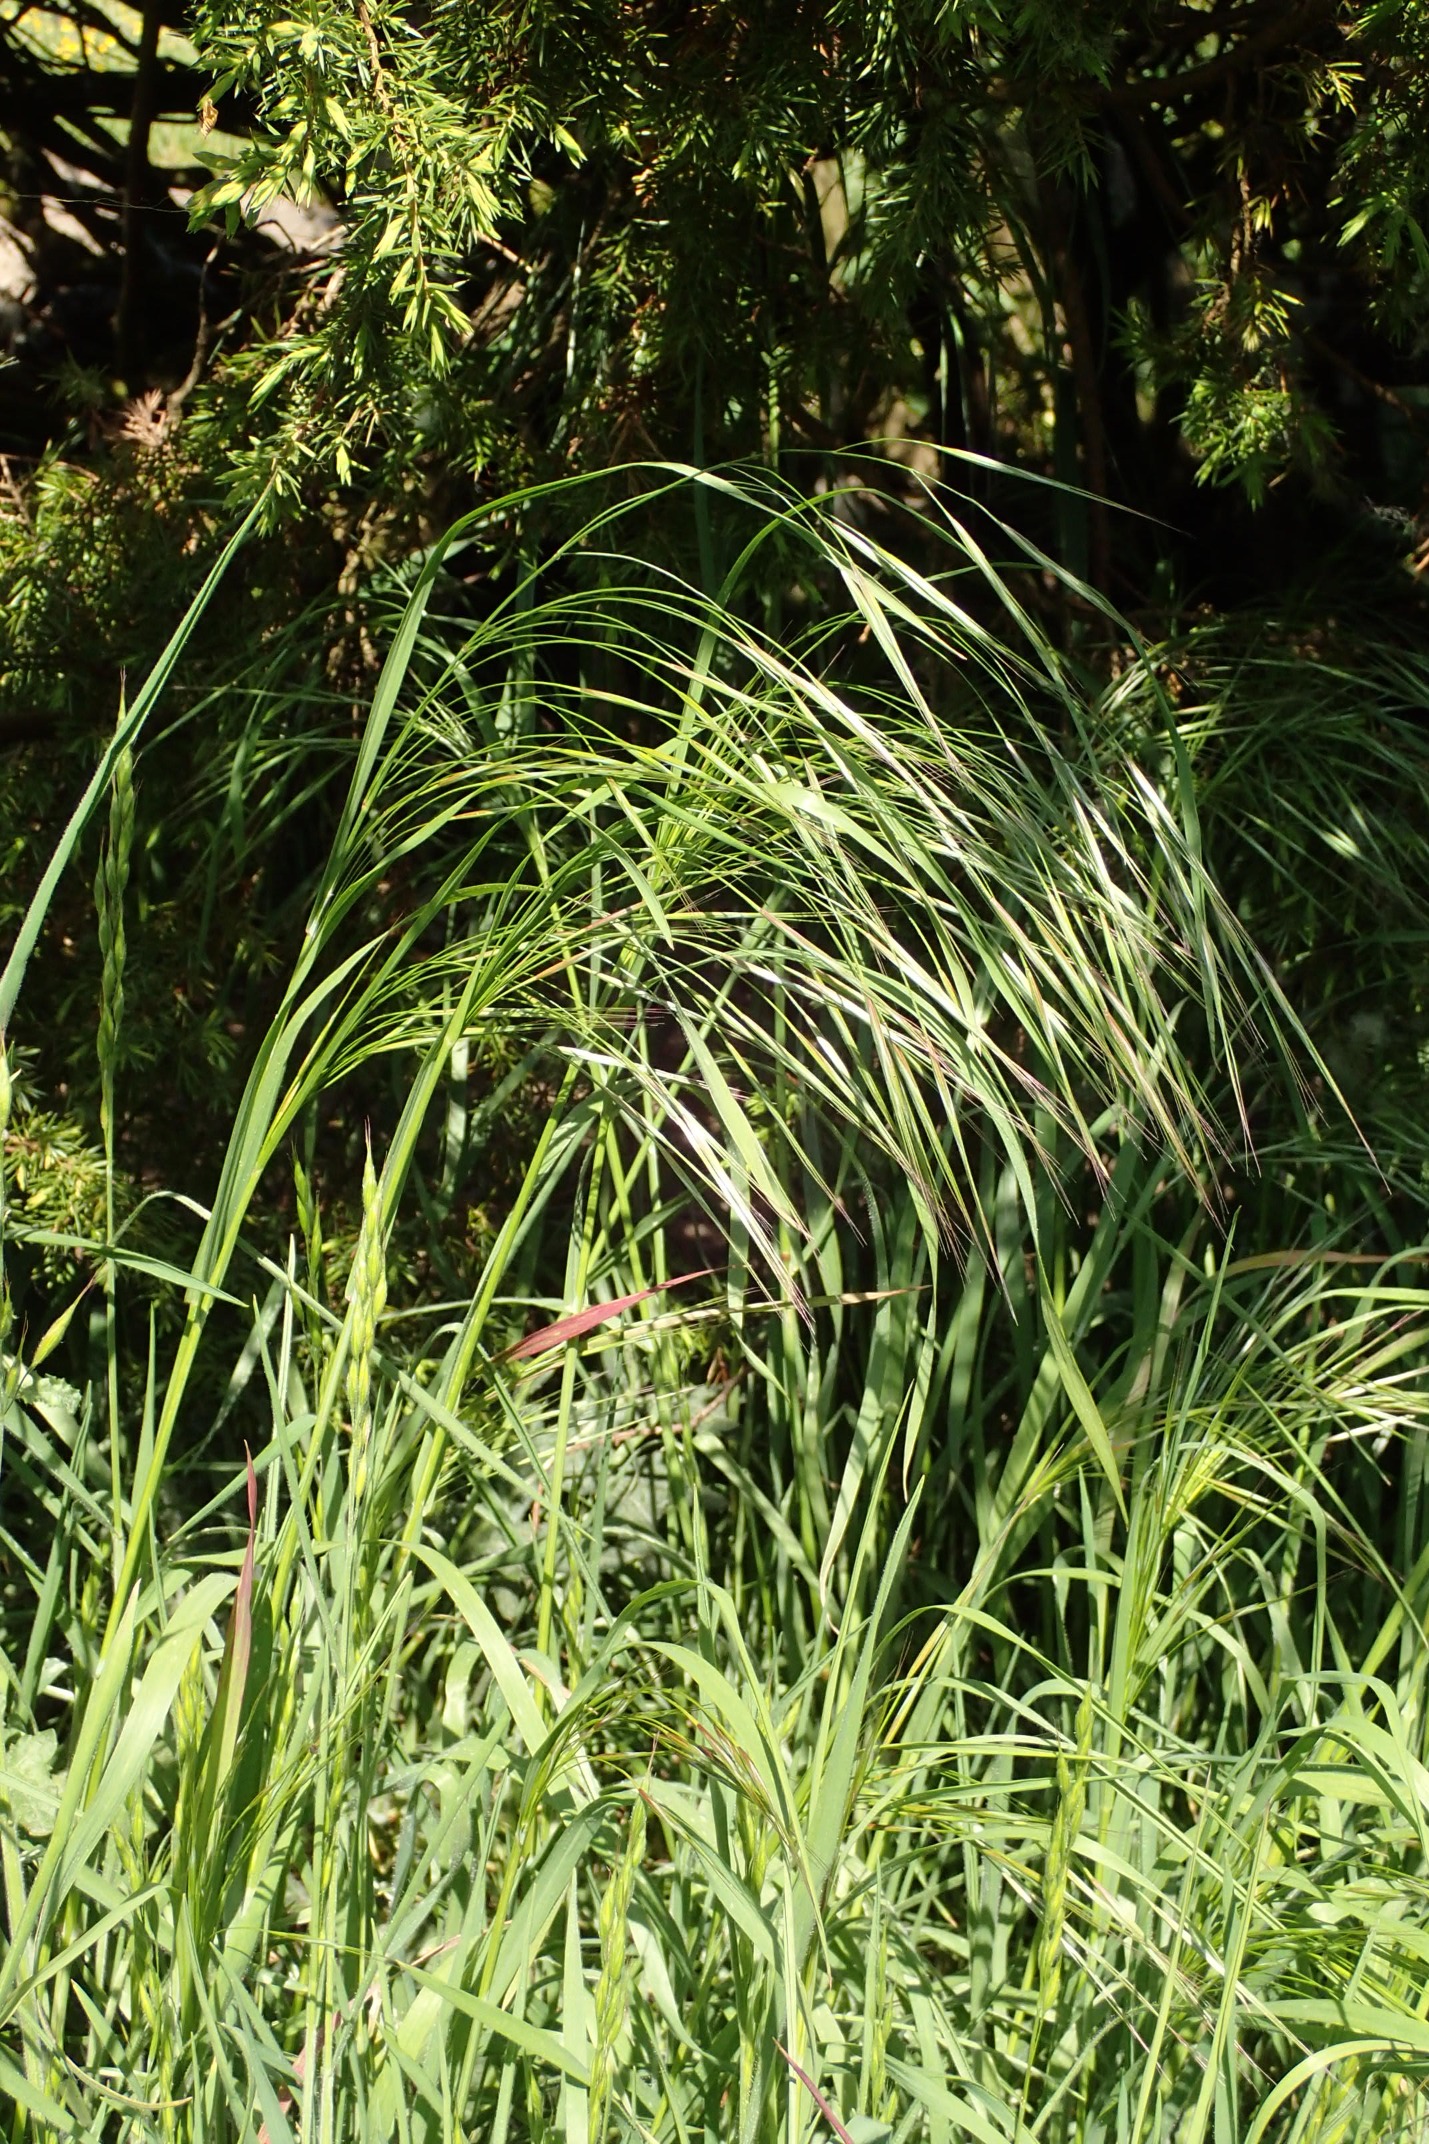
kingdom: Plantae
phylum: Tracheophyta
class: Liliopsida
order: Poales
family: Poaceae
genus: Bromus
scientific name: Bromus sterilis
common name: Gold hejre
